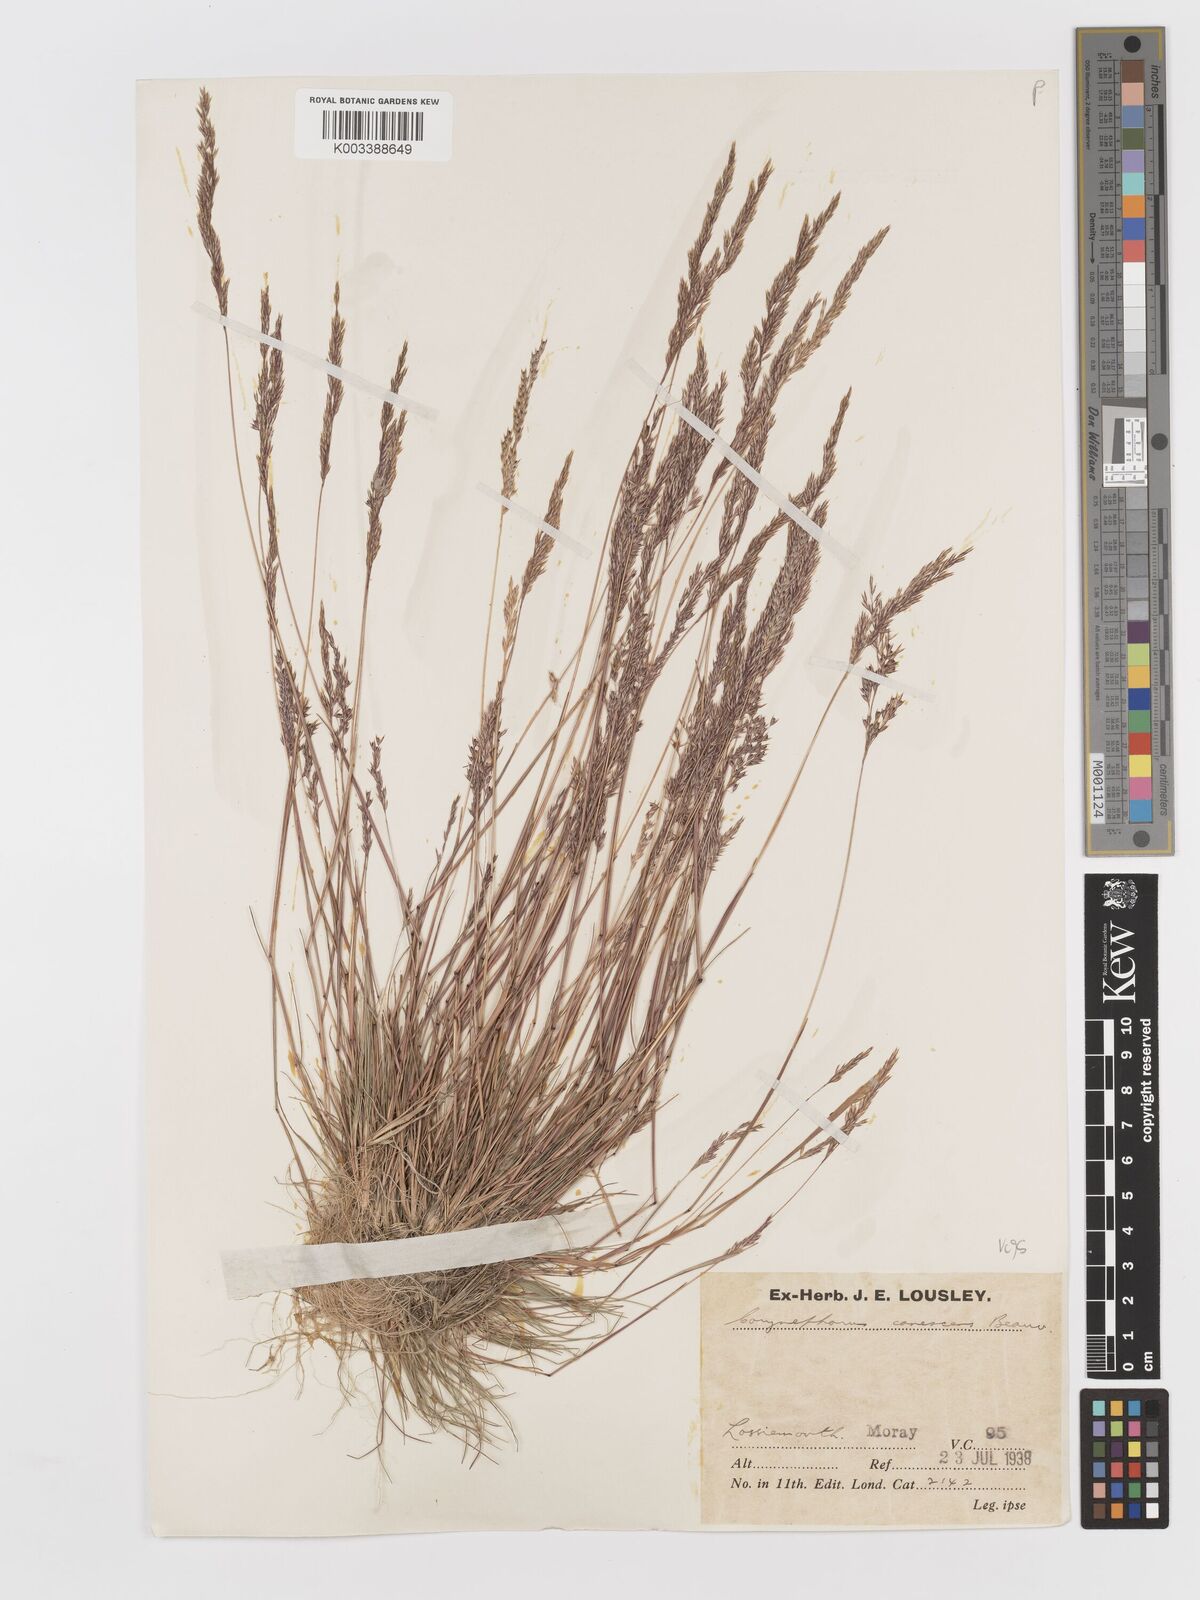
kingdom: Plantae
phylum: Tracheophyta
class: Liliopsida
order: Poales
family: Poaceae
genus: Corynephorus
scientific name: Corynephorus canescens
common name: Grey hair-grass
